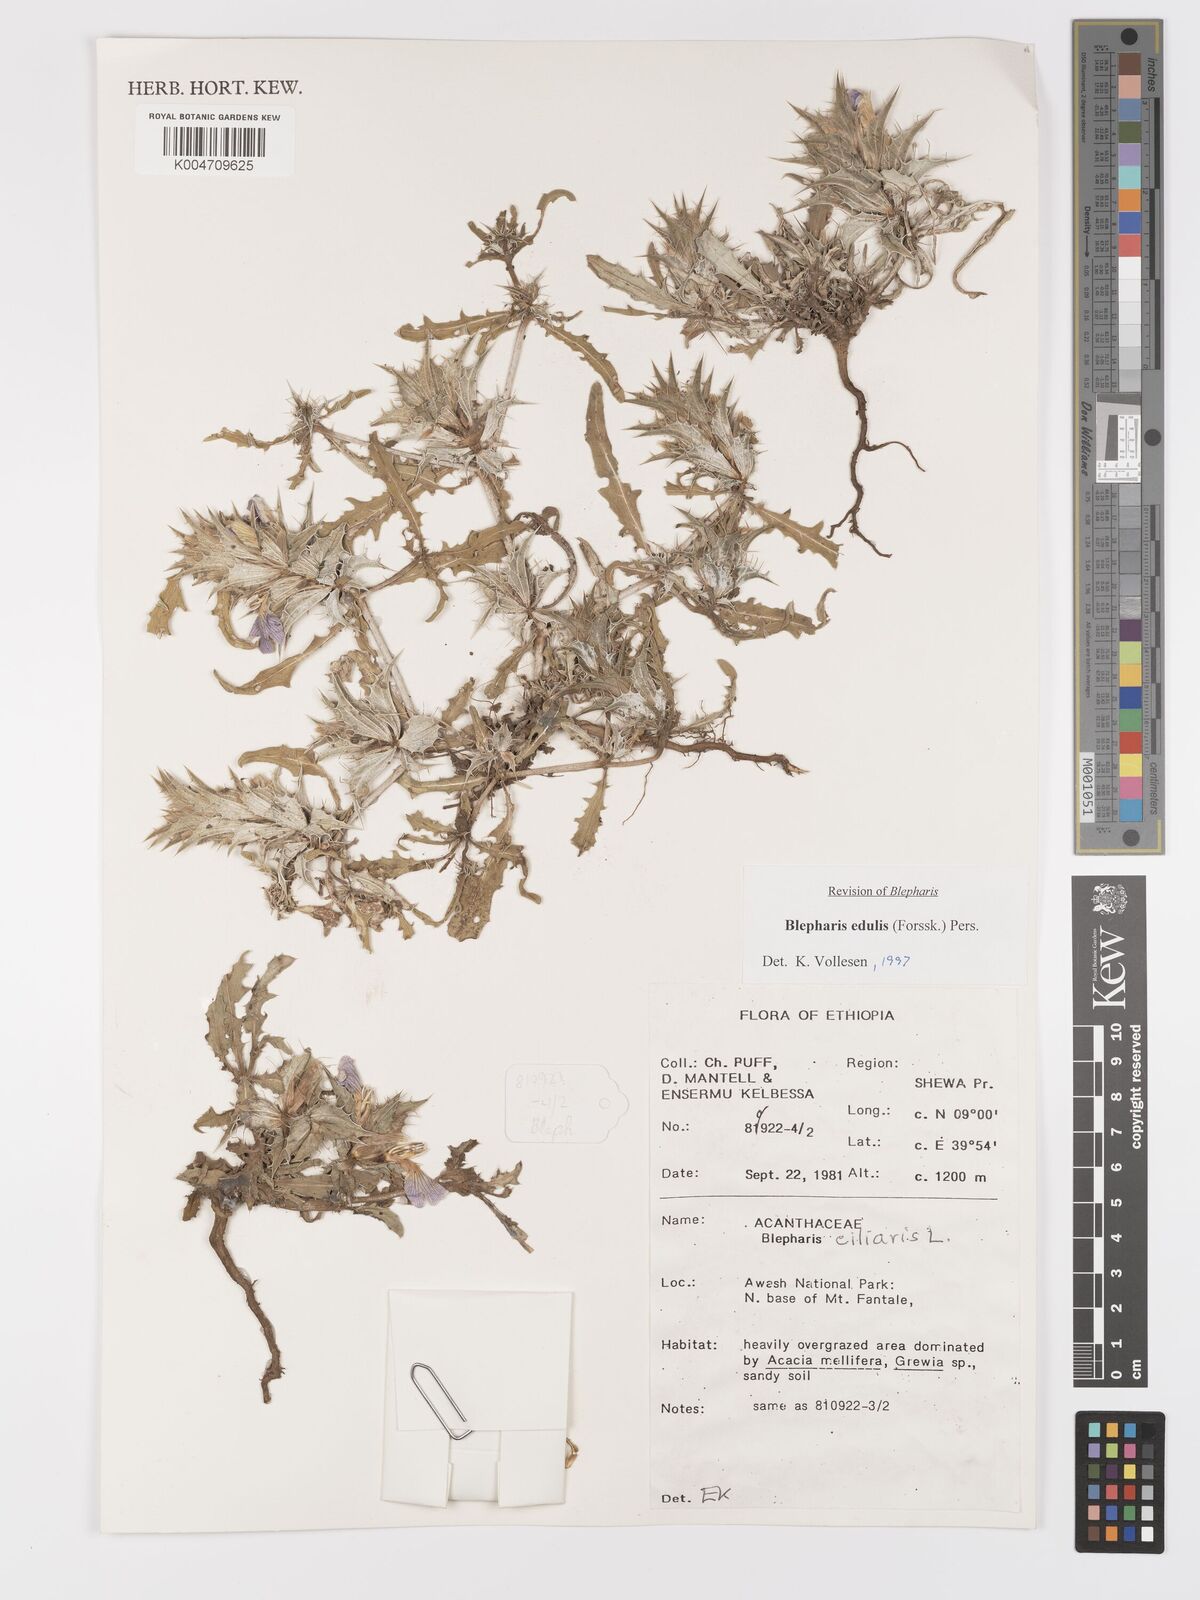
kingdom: Plantae
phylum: Tracheophyta
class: Magnoliopsida
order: Lamiales
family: Acanthaceae
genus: Blepharis
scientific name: Blepharis edulis
